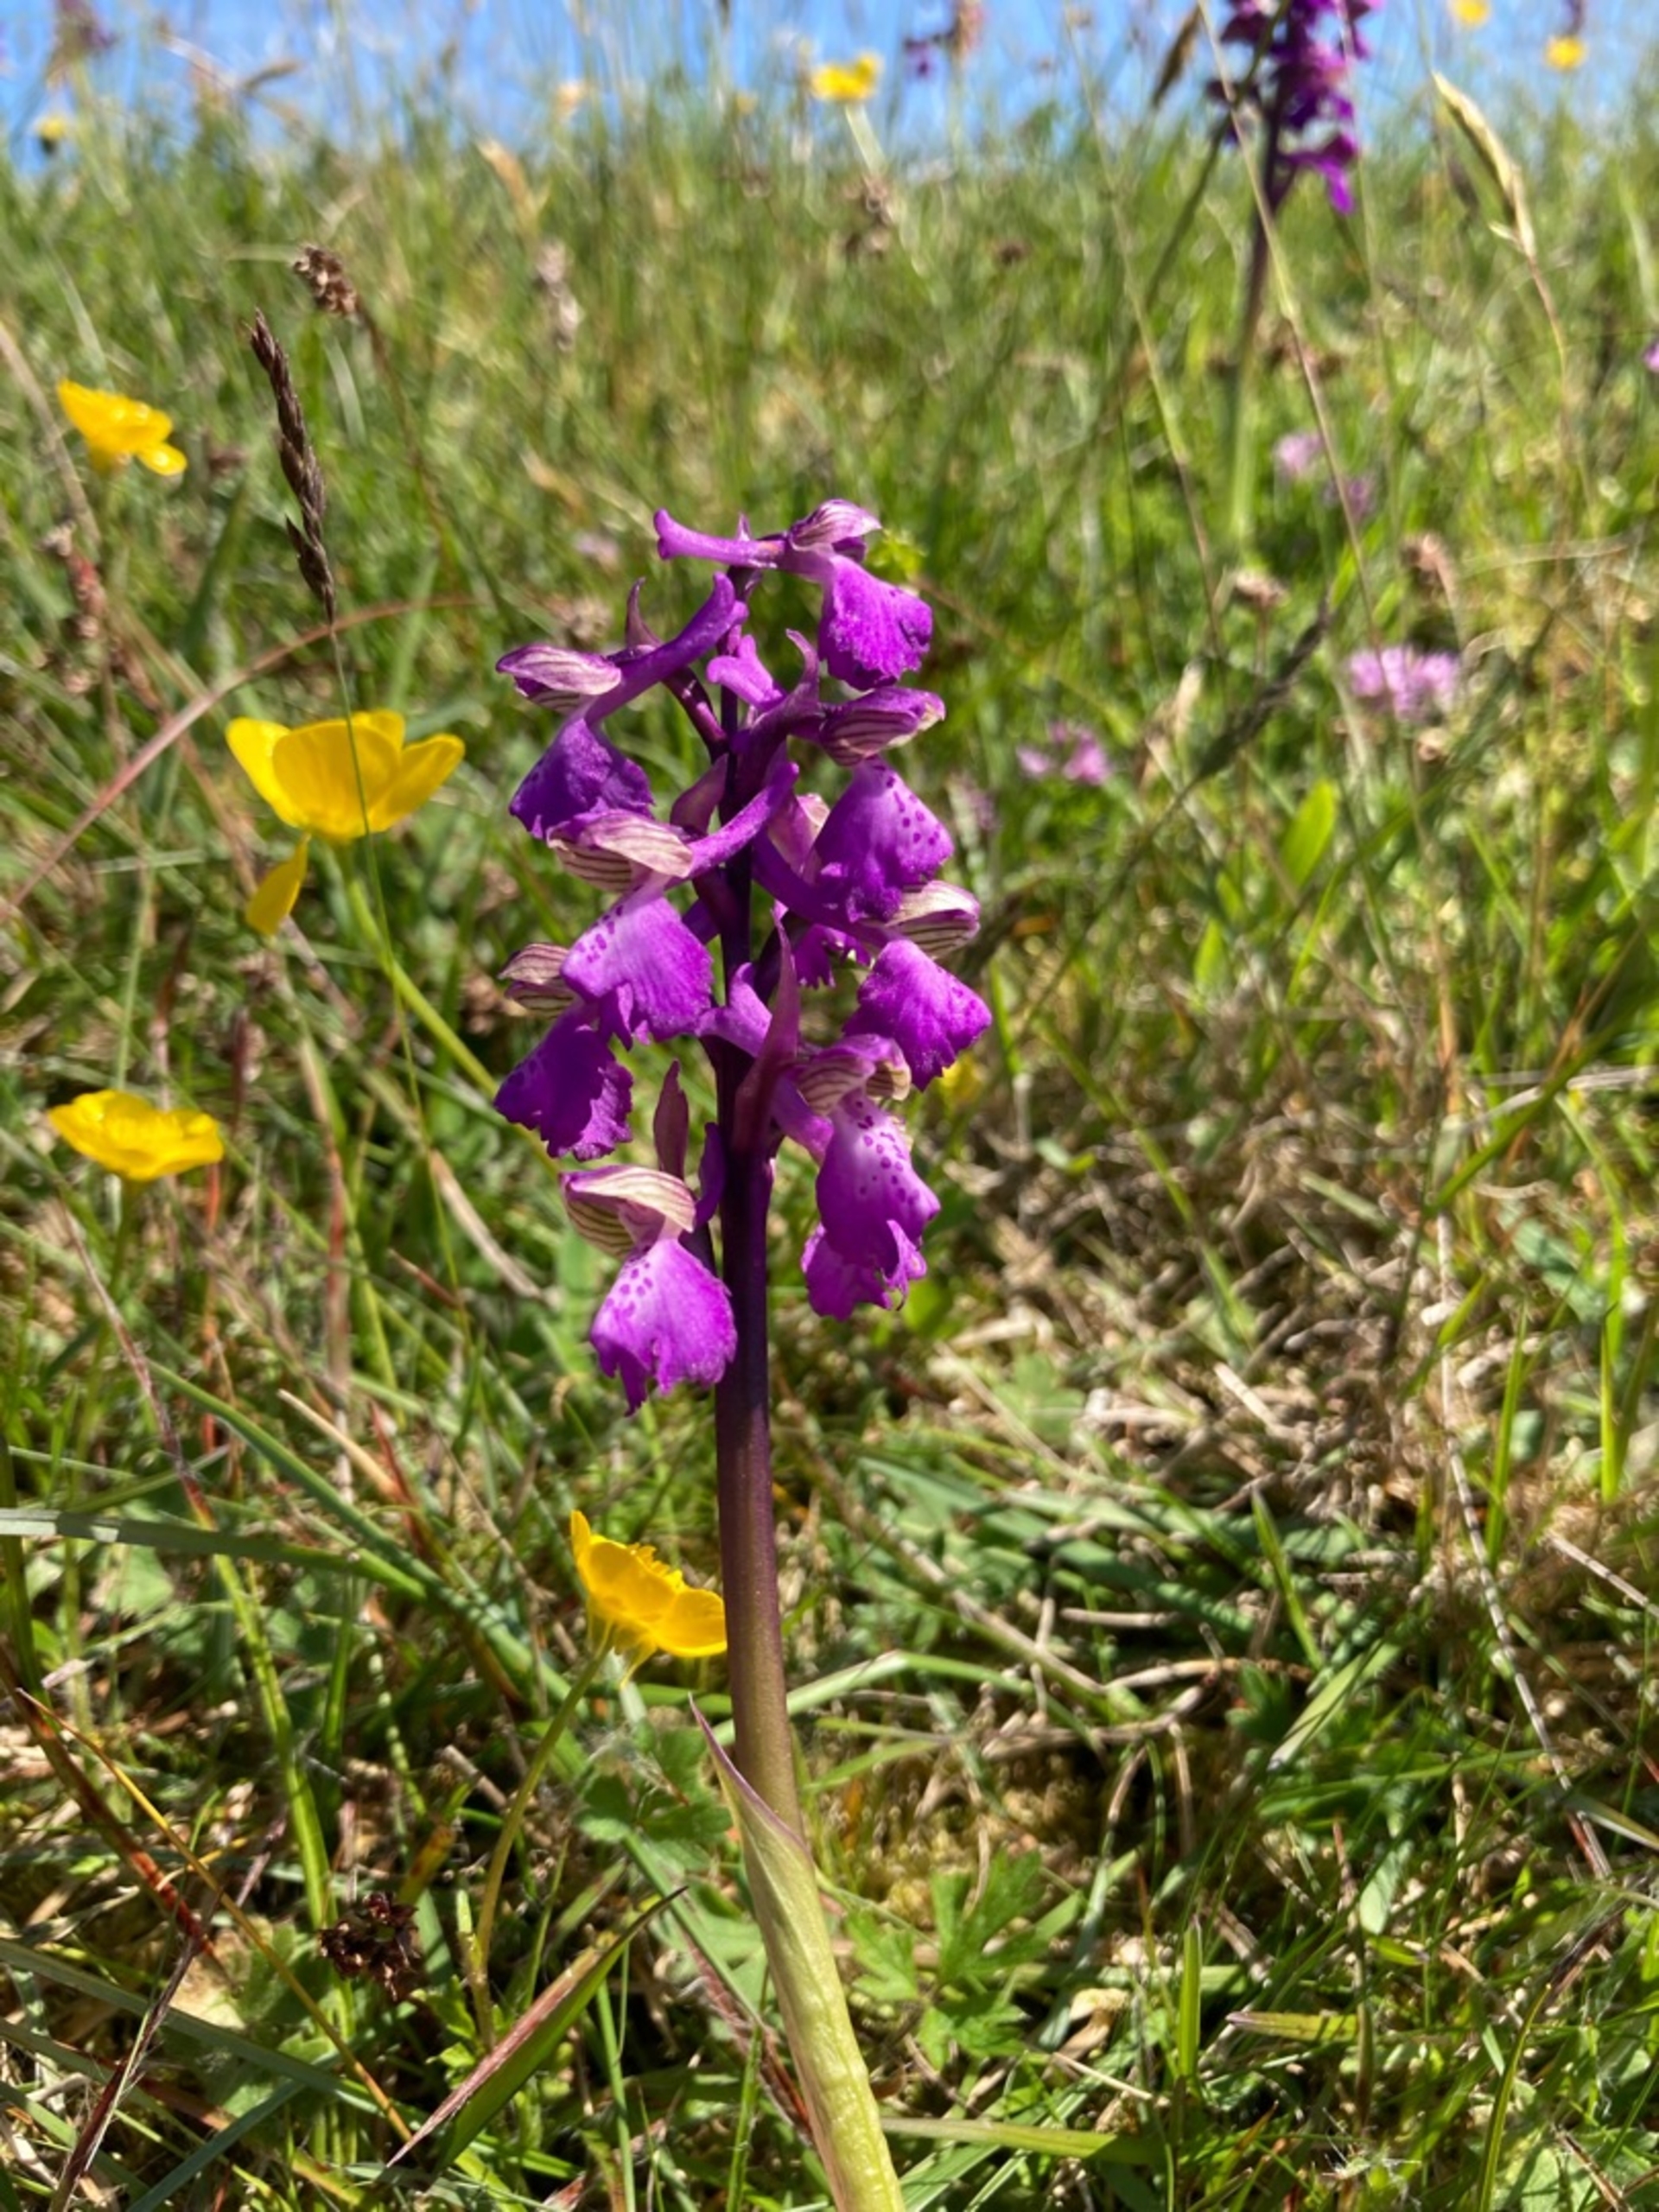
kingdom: Plantae
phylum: Tracheophyta
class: Liliopsida
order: Asparagales
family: Orchidaceae
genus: Anacamptis
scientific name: Anacamptis morio
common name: Salepgøgeurt
